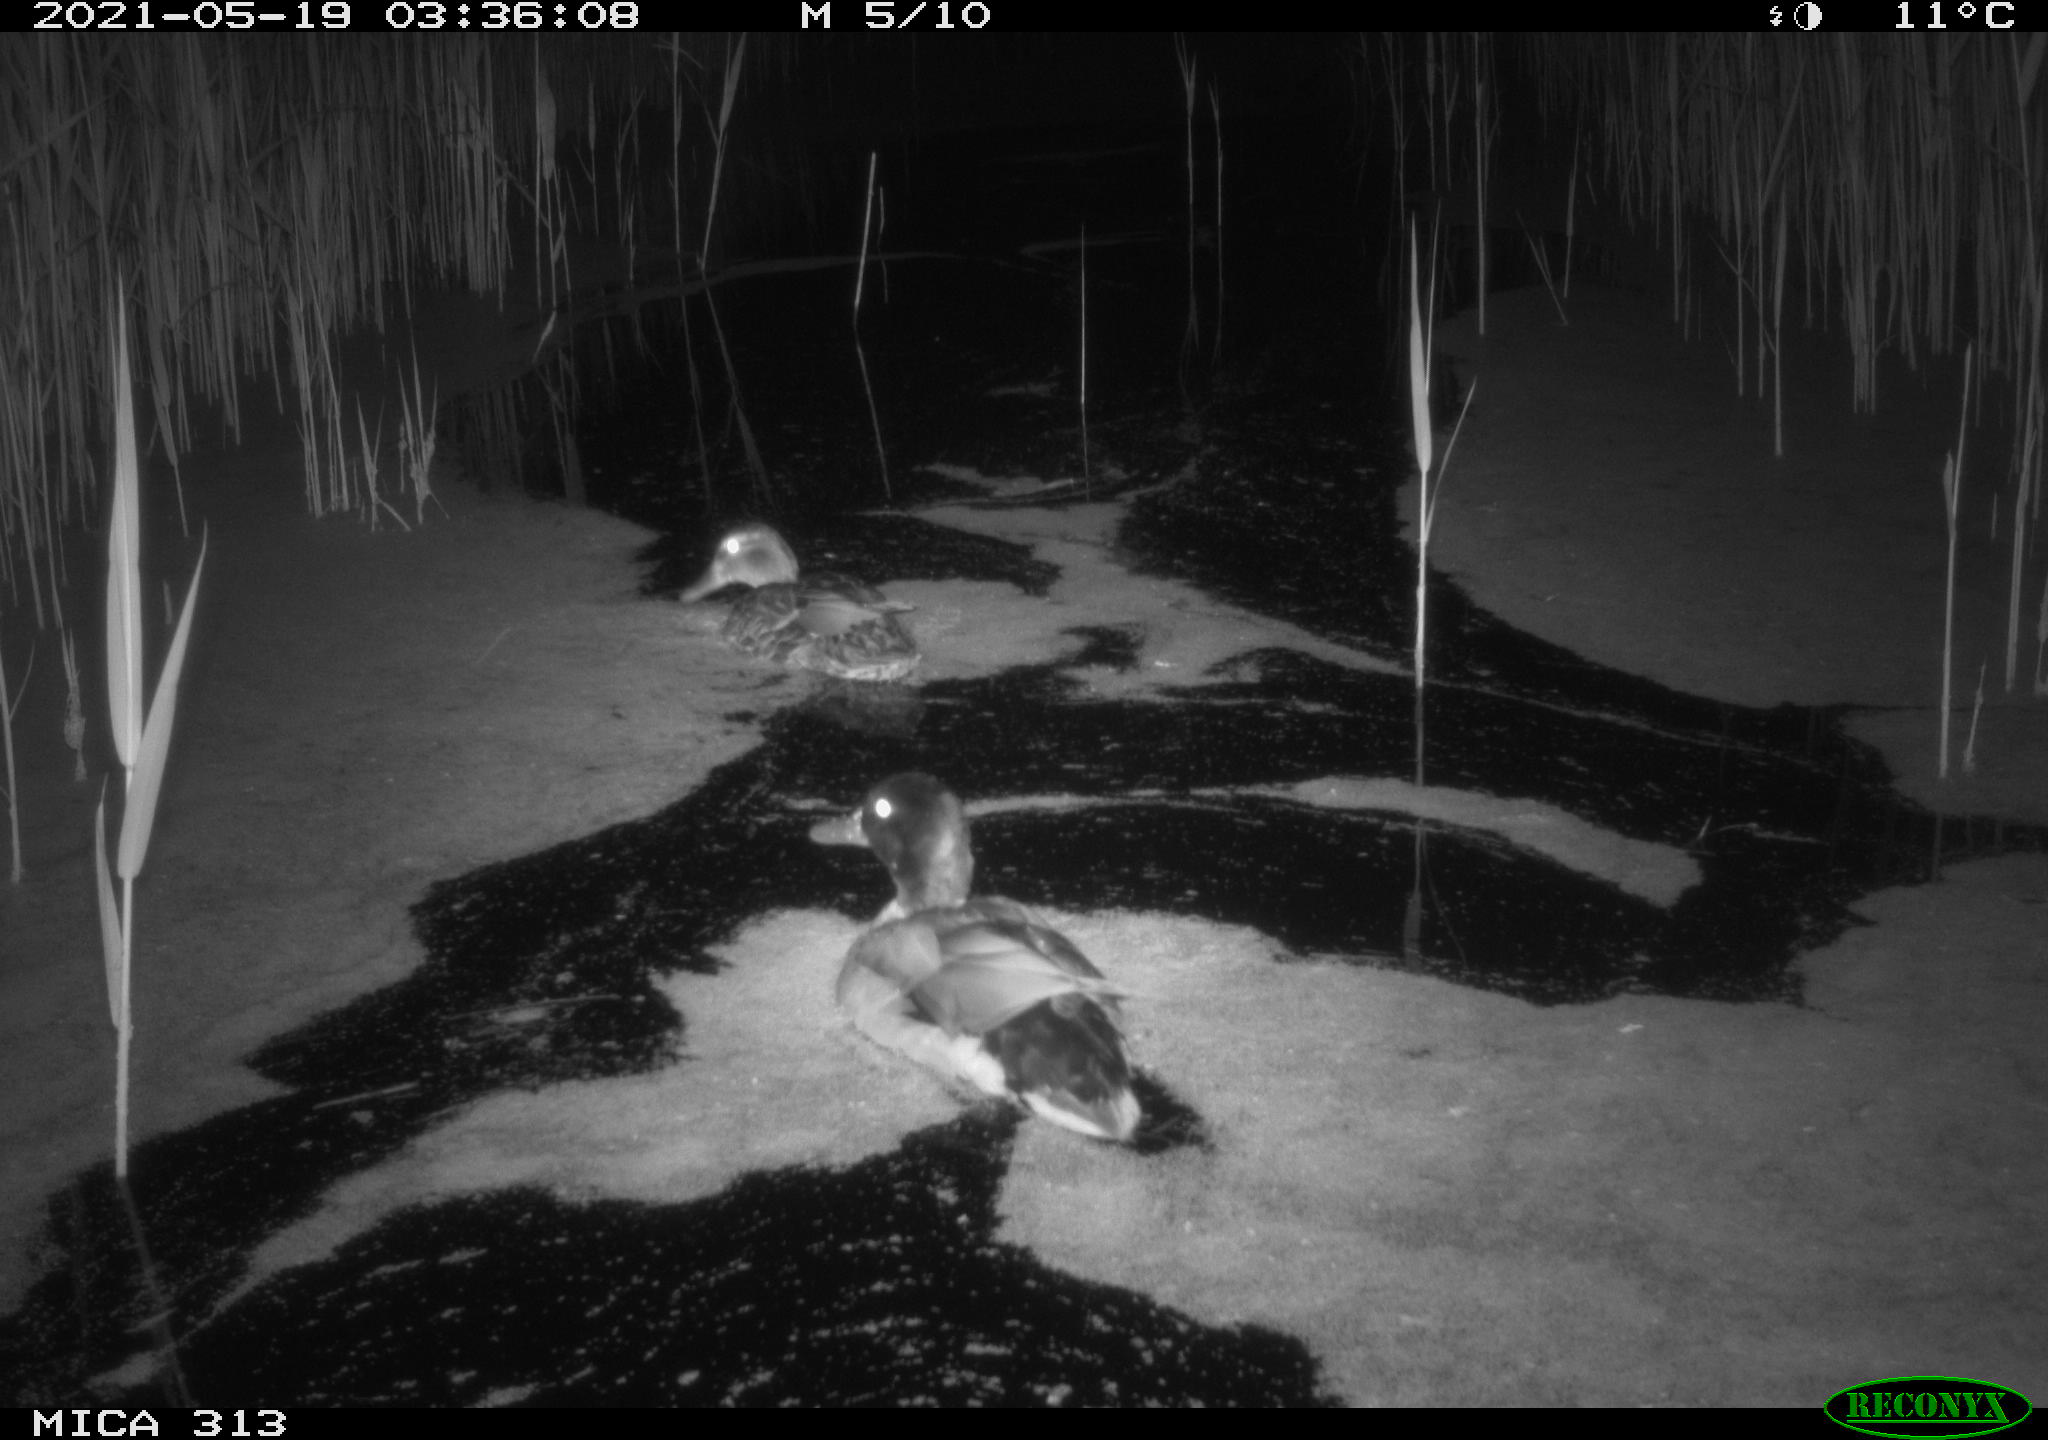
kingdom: Animalia
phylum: Chordata
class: Aves
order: Anseriformes
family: Anatidae
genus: Anas
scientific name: Anas platyrhynchos
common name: Mallard
